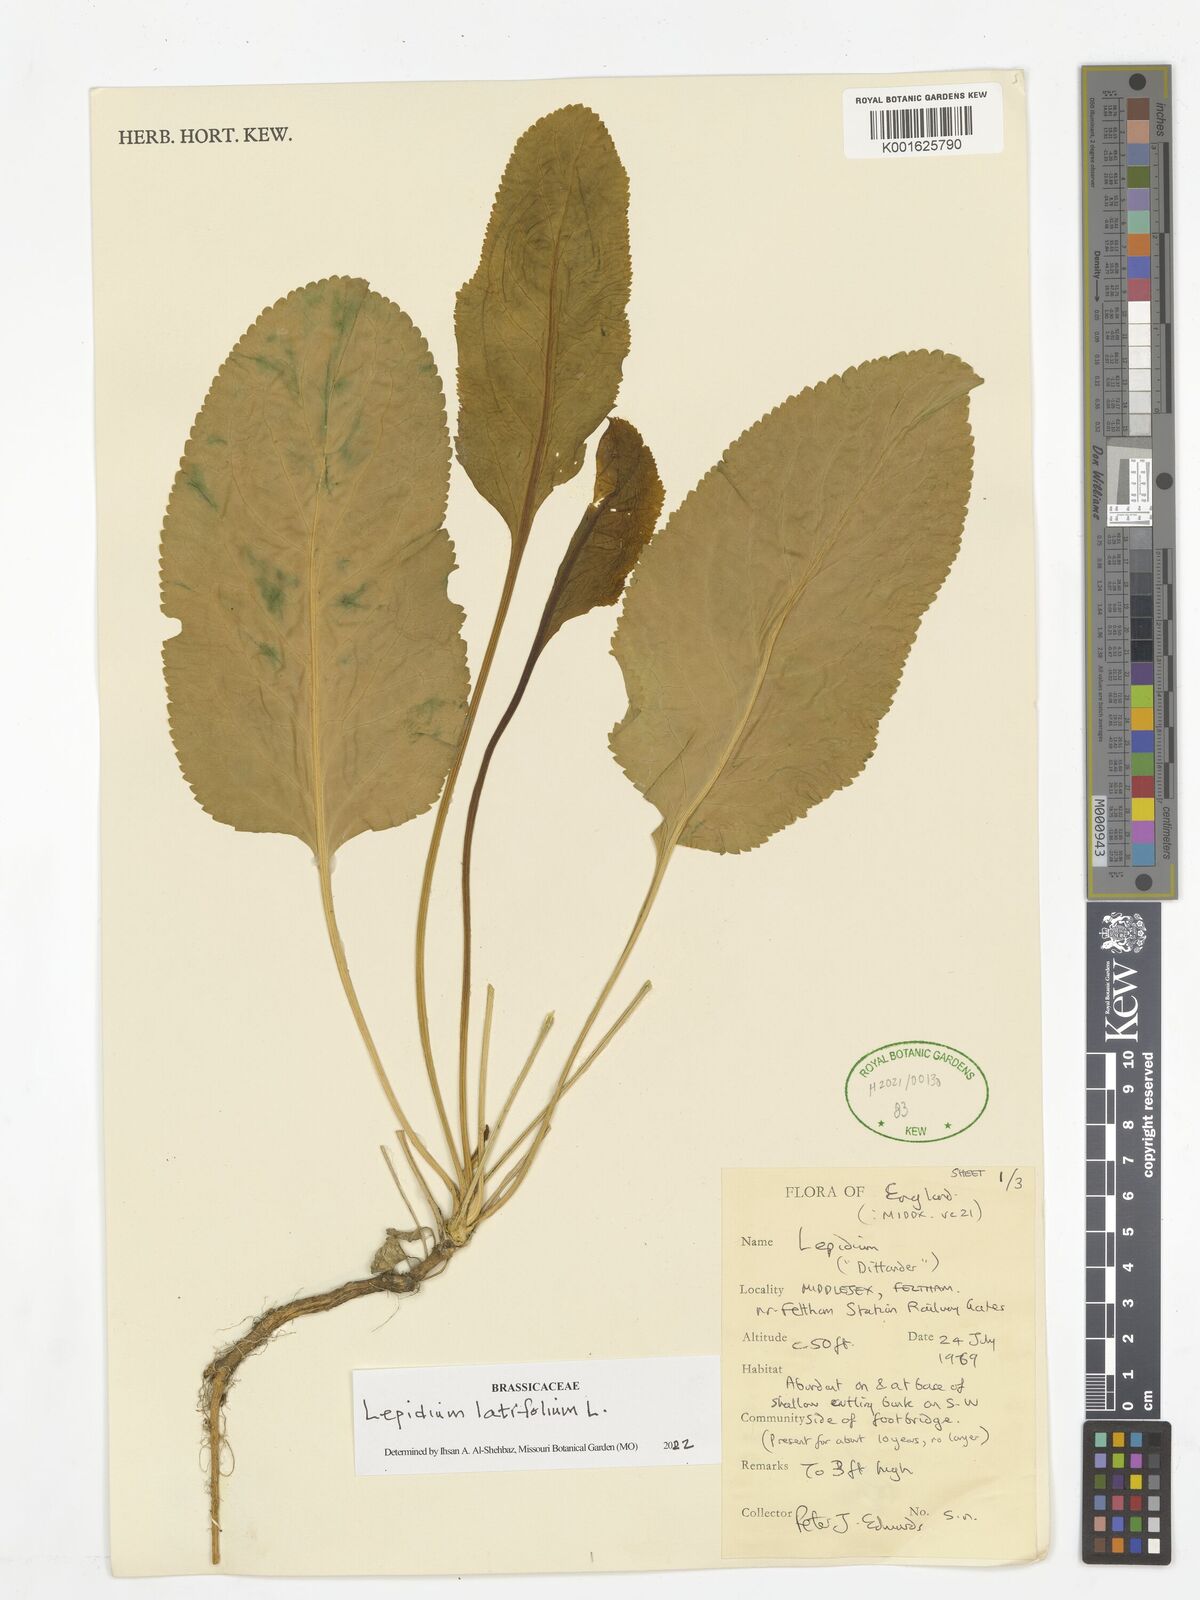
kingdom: Plantae
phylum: Tracheophyta
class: Magnoliopsida
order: Brassicales
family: Brassicaceae
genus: Lepidium
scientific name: Lepidium latifolium
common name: Dittander
